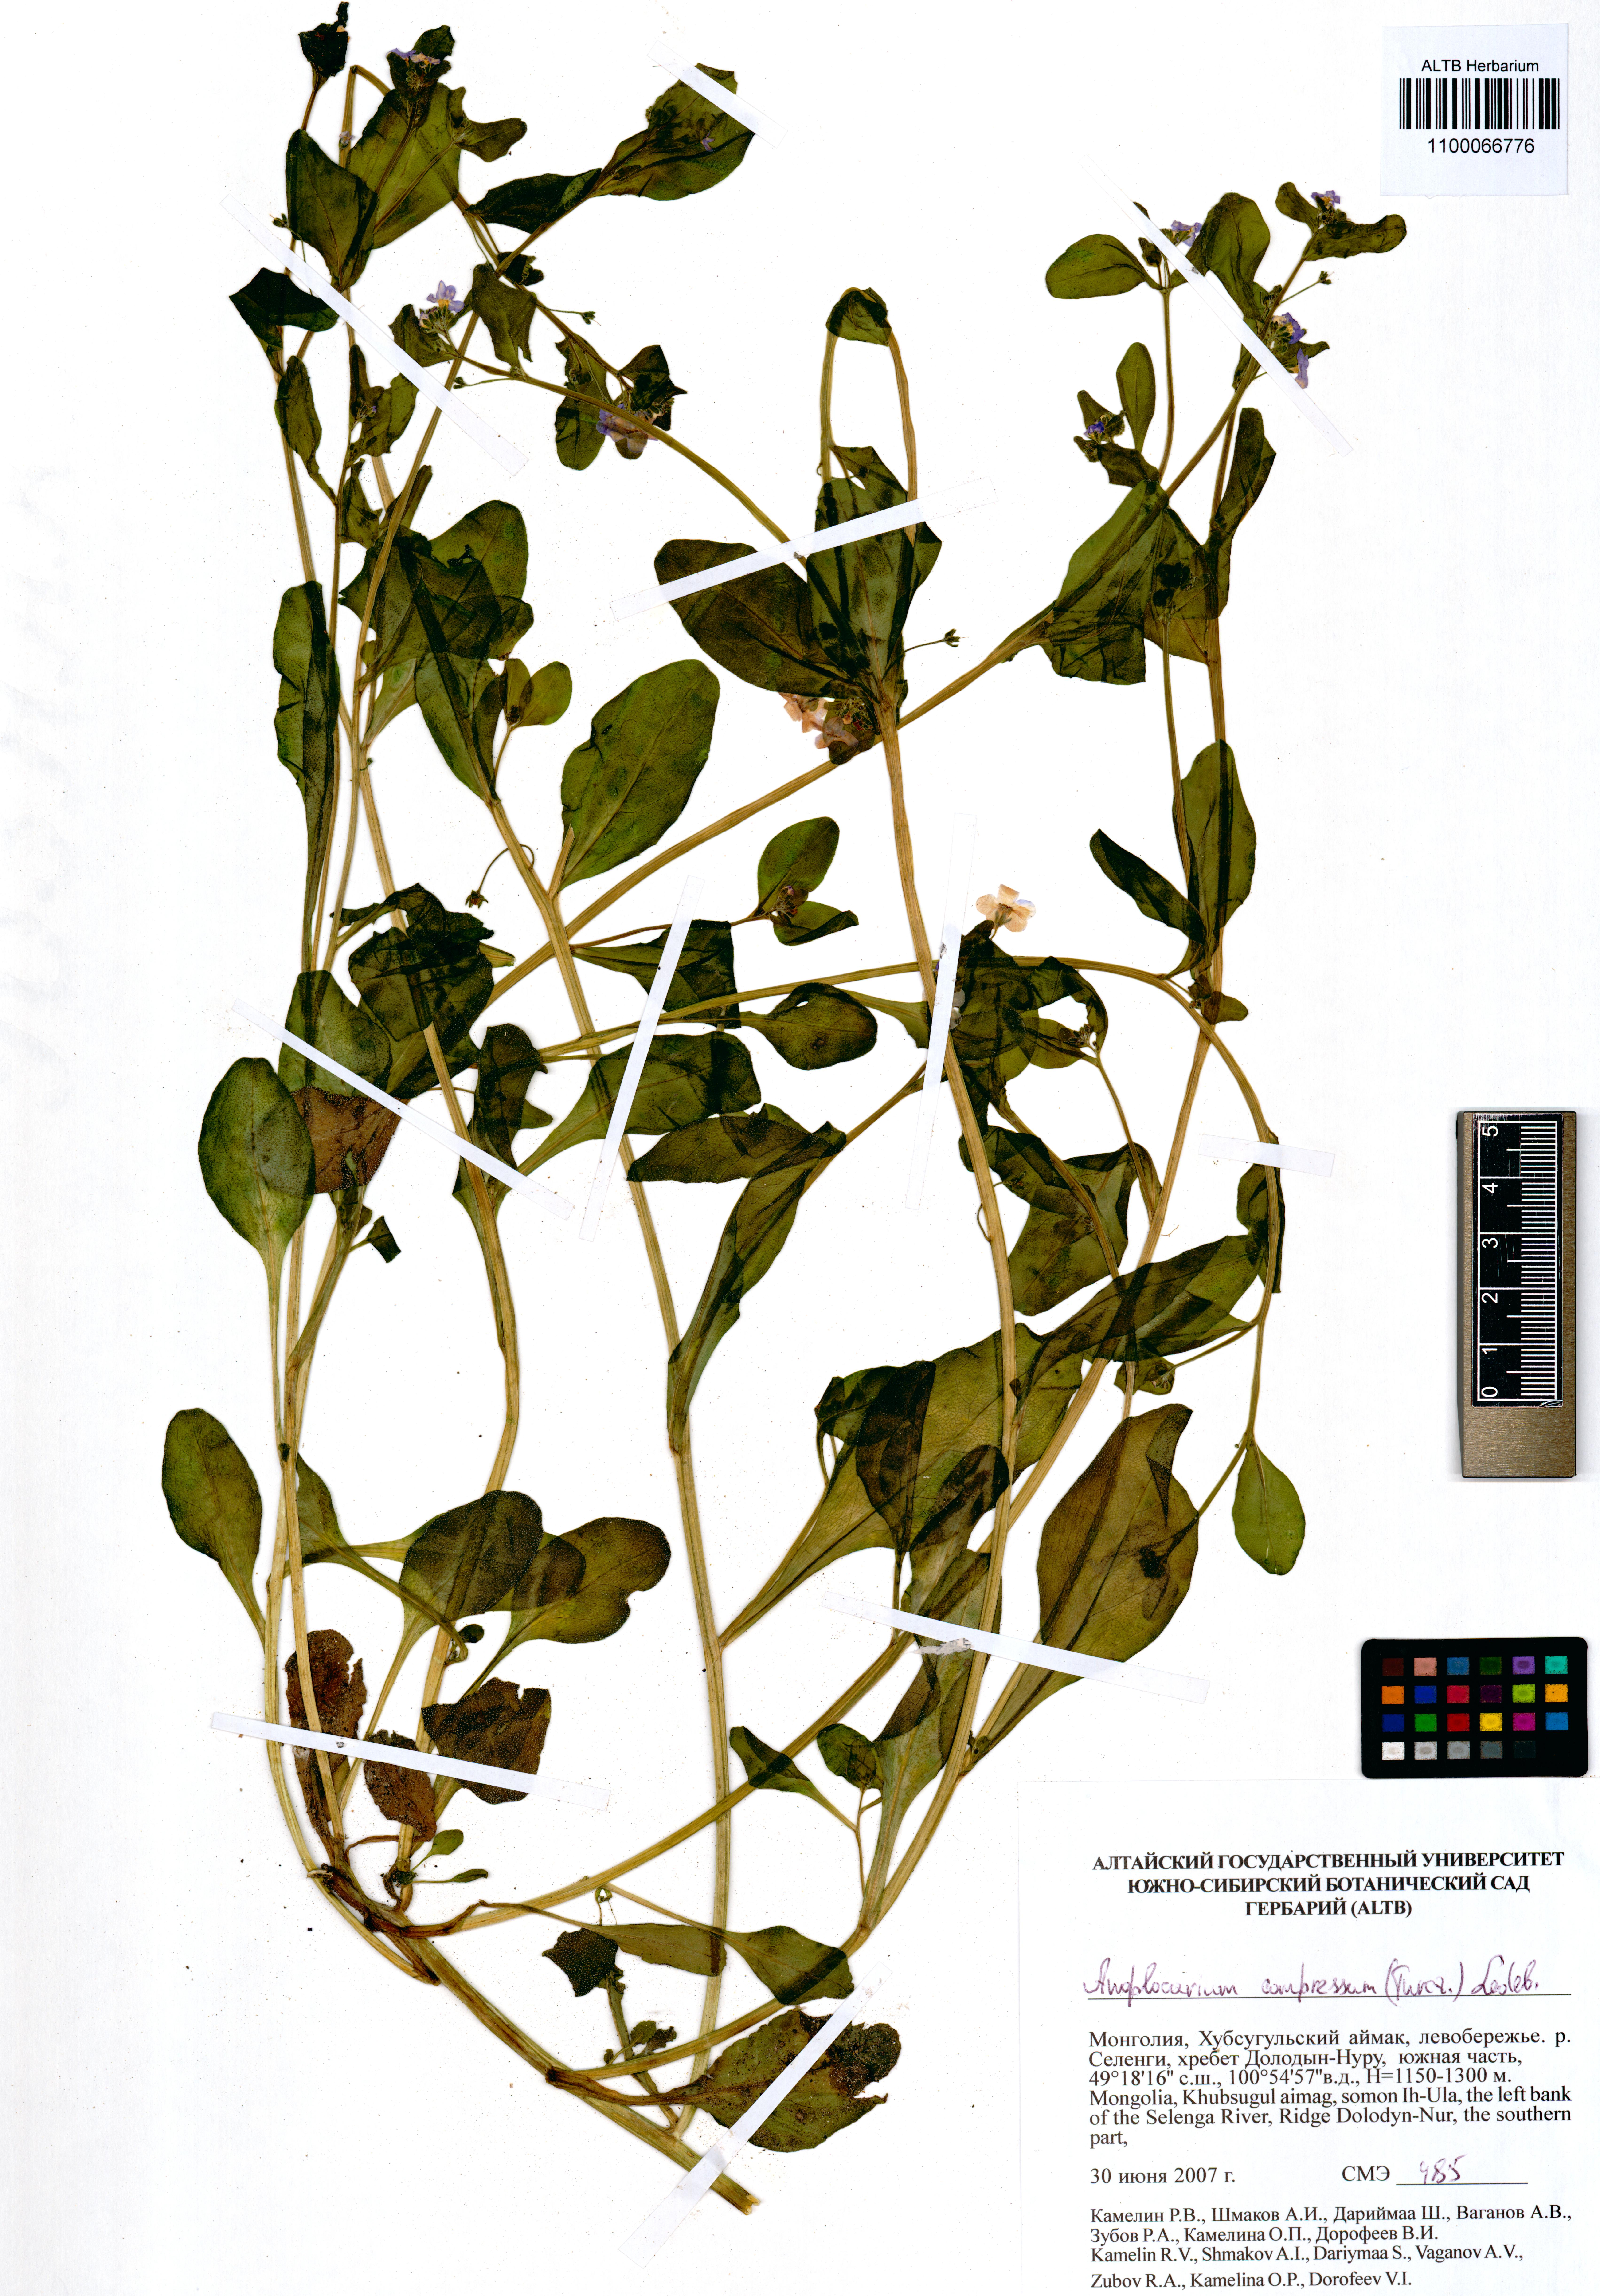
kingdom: Plantae
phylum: Tracheophyta
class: Magnoliopsida
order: Boraginales
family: Boraginaceae
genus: Anoplocaryum
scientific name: Anoplocaryum compressum
